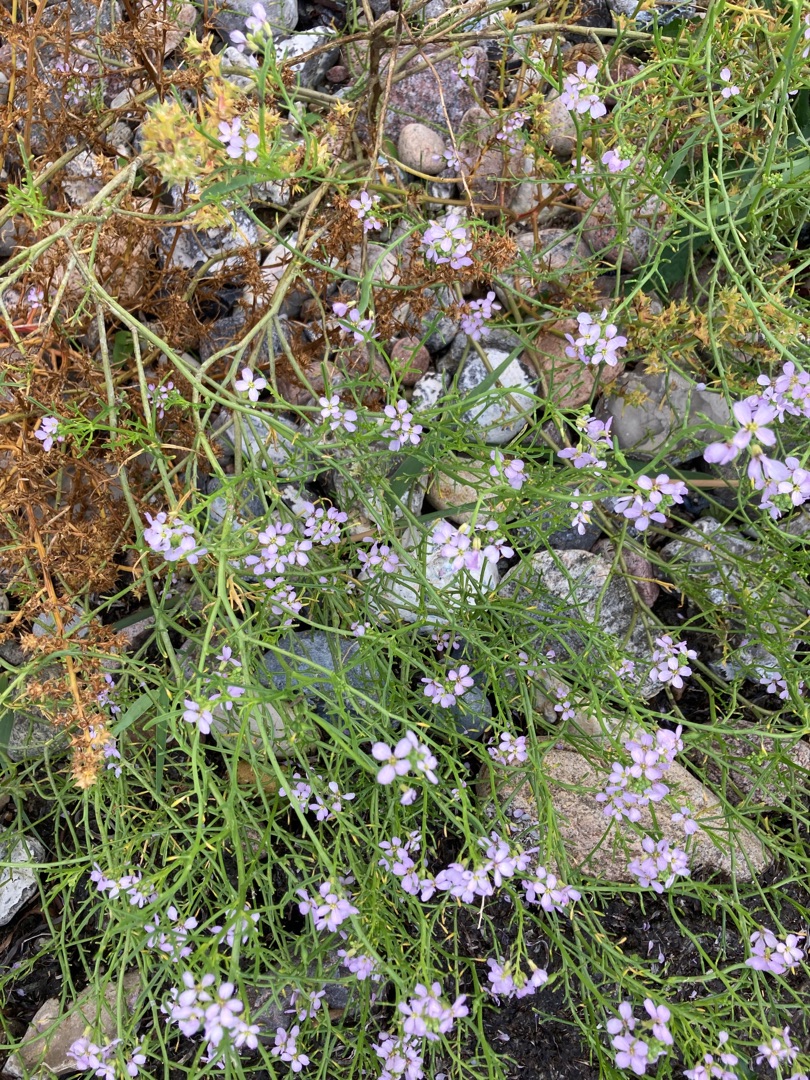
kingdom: Plantae
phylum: Tracheophyta
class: Magnoliopsida
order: Brassicales
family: Brassicaceae
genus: Cakile
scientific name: Cakile maritima
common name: Strandsennep
